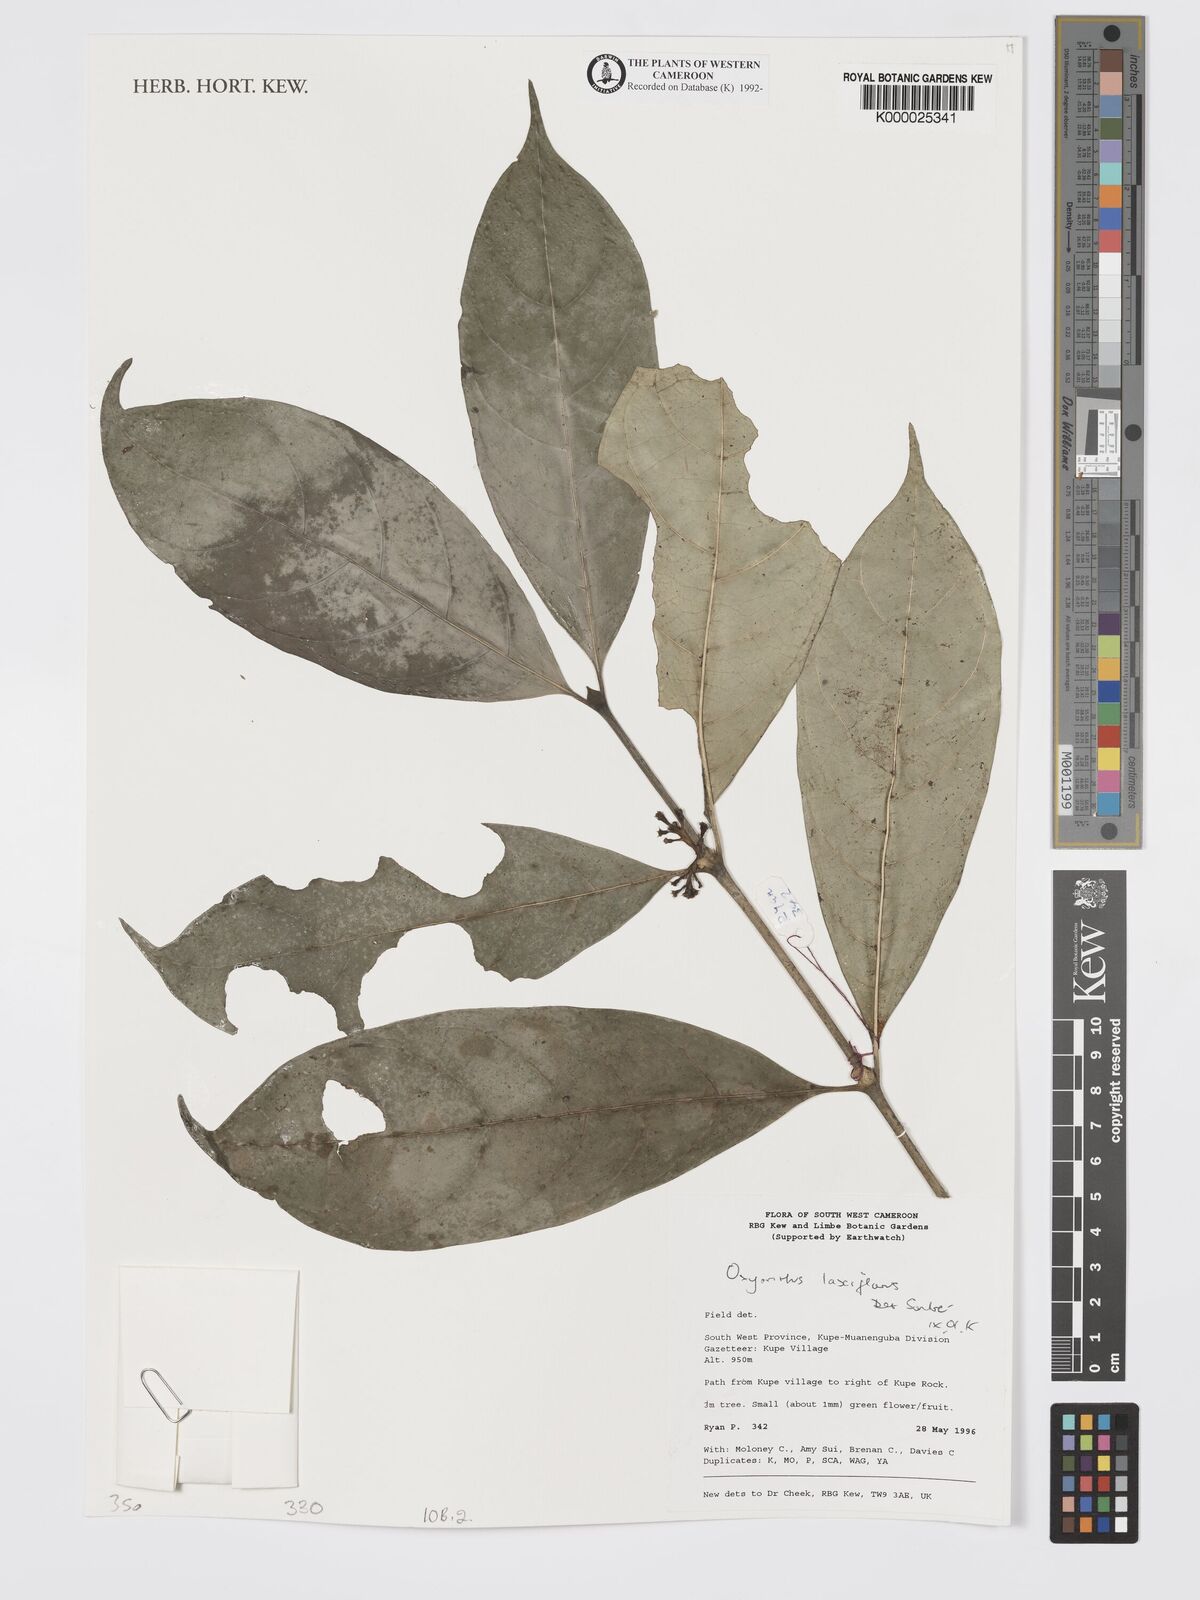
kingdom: Plantae
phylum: Tracheophyta
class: Magnoliopsida
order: Gentianales
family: Rubiaceae
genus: Oxyanthus
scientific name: Oxyanthus laxiflorus
